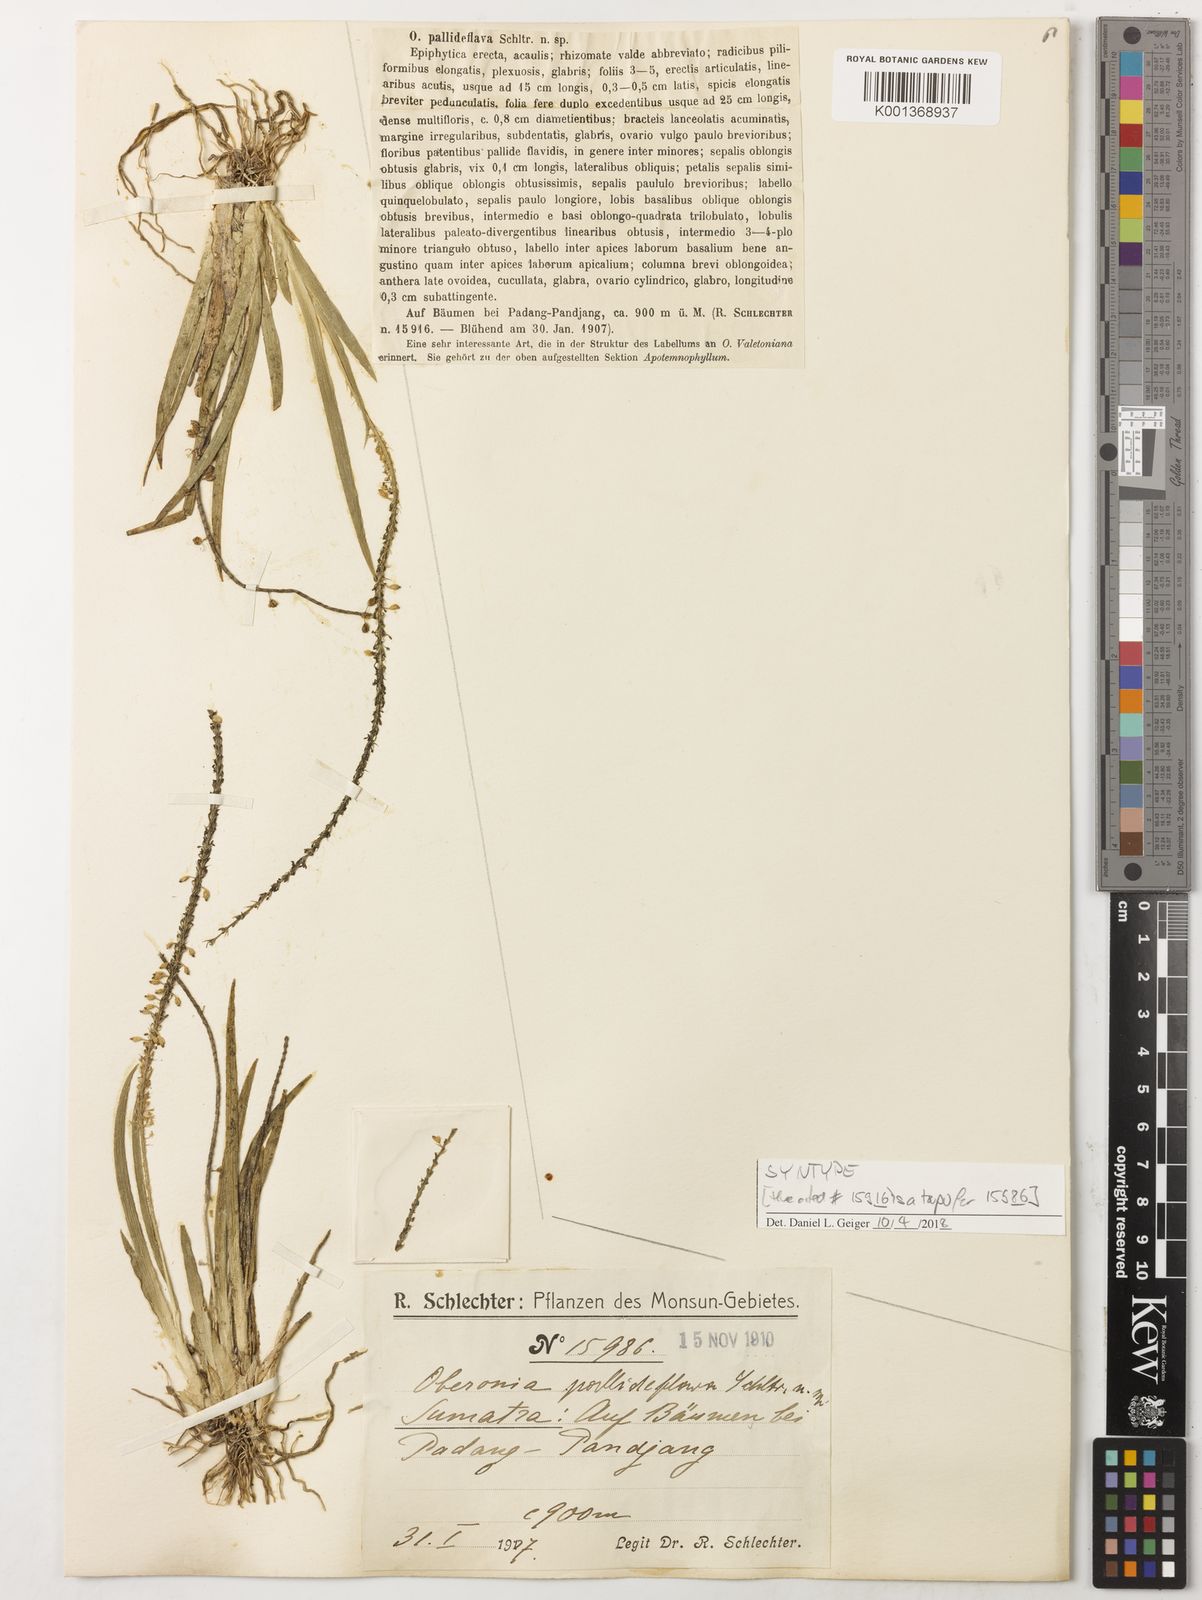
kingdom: Plantae
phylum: Tracheophyta
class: Liliopsida
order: Asparagales
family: Orchidaceae
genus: Oberonia
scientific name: Oberonia pallideflava
